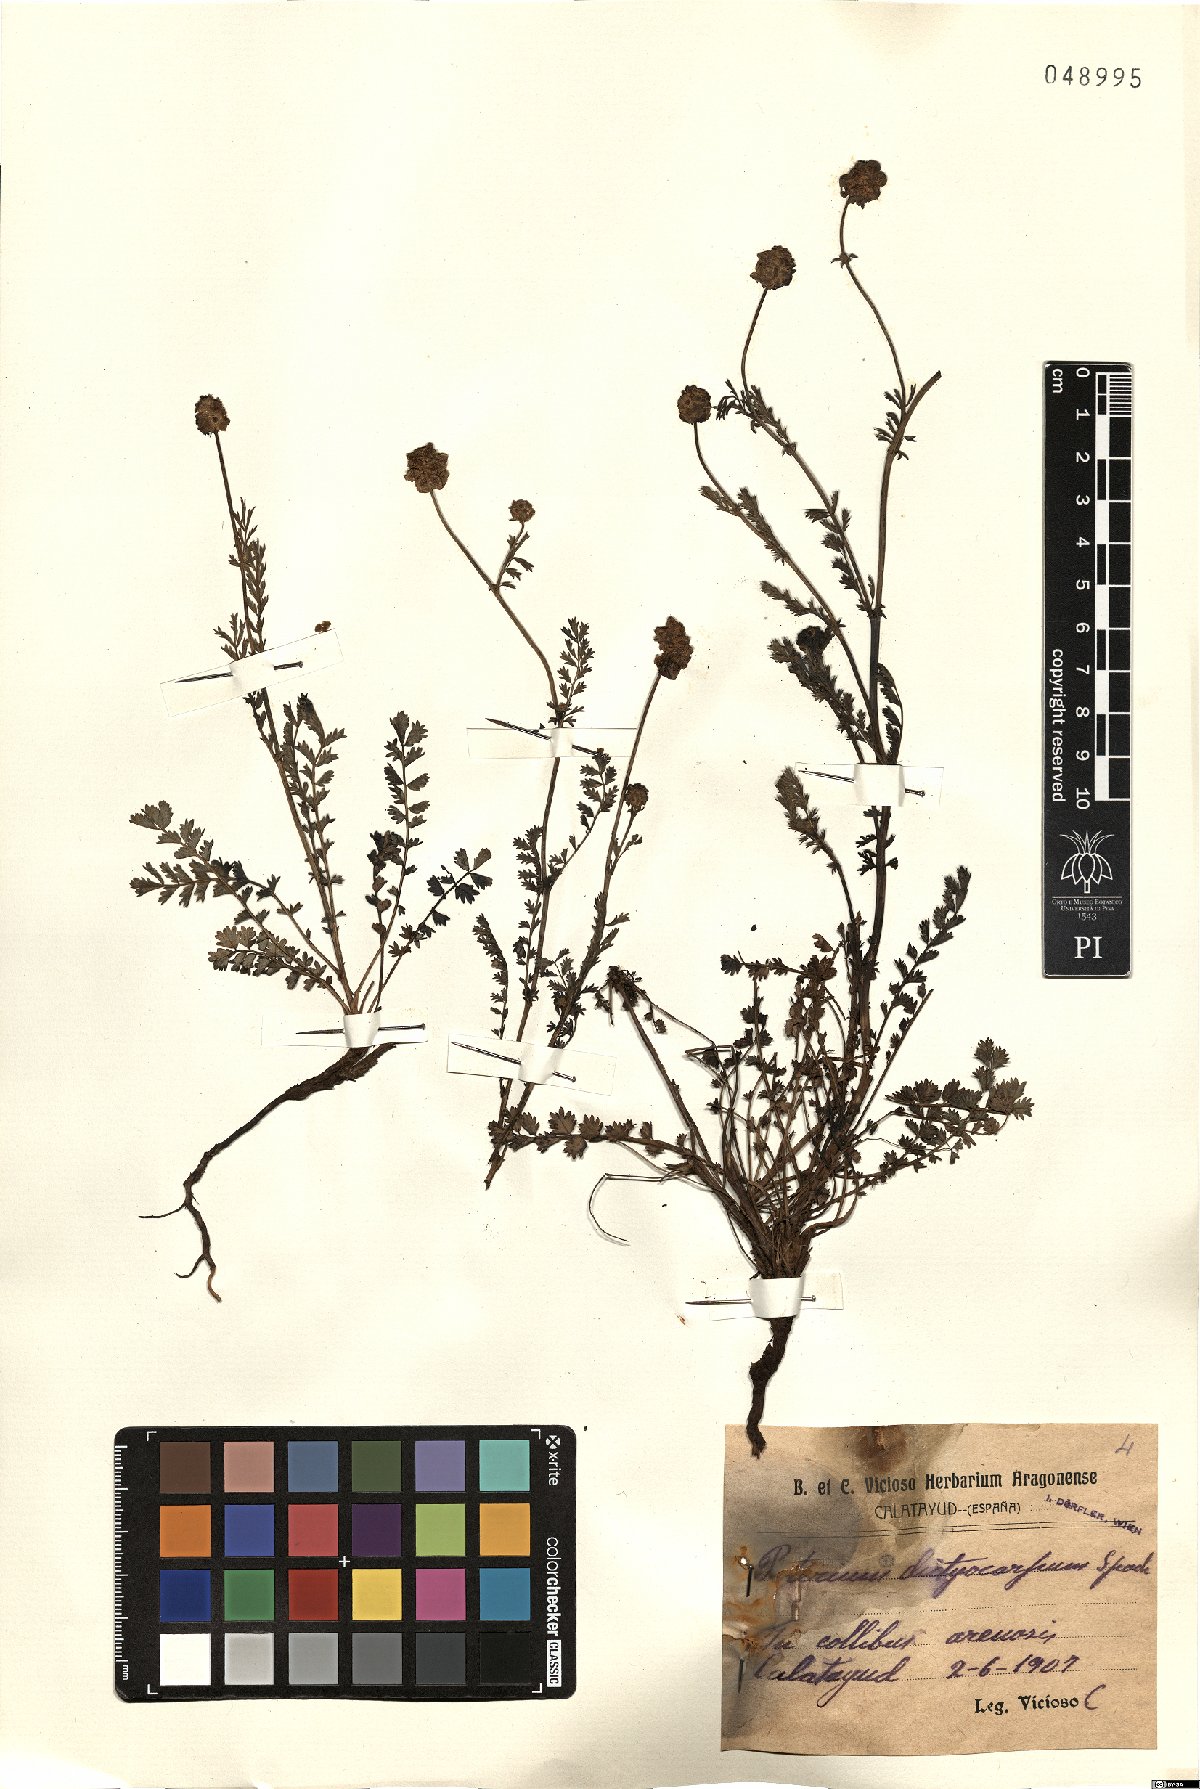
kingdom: Plantae
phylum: Tracheophyta
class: Magnoliopsida
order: Rosales
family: Rosaceae
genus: Poterium
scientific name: Poterium sanguisorba
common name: Salad burnet
